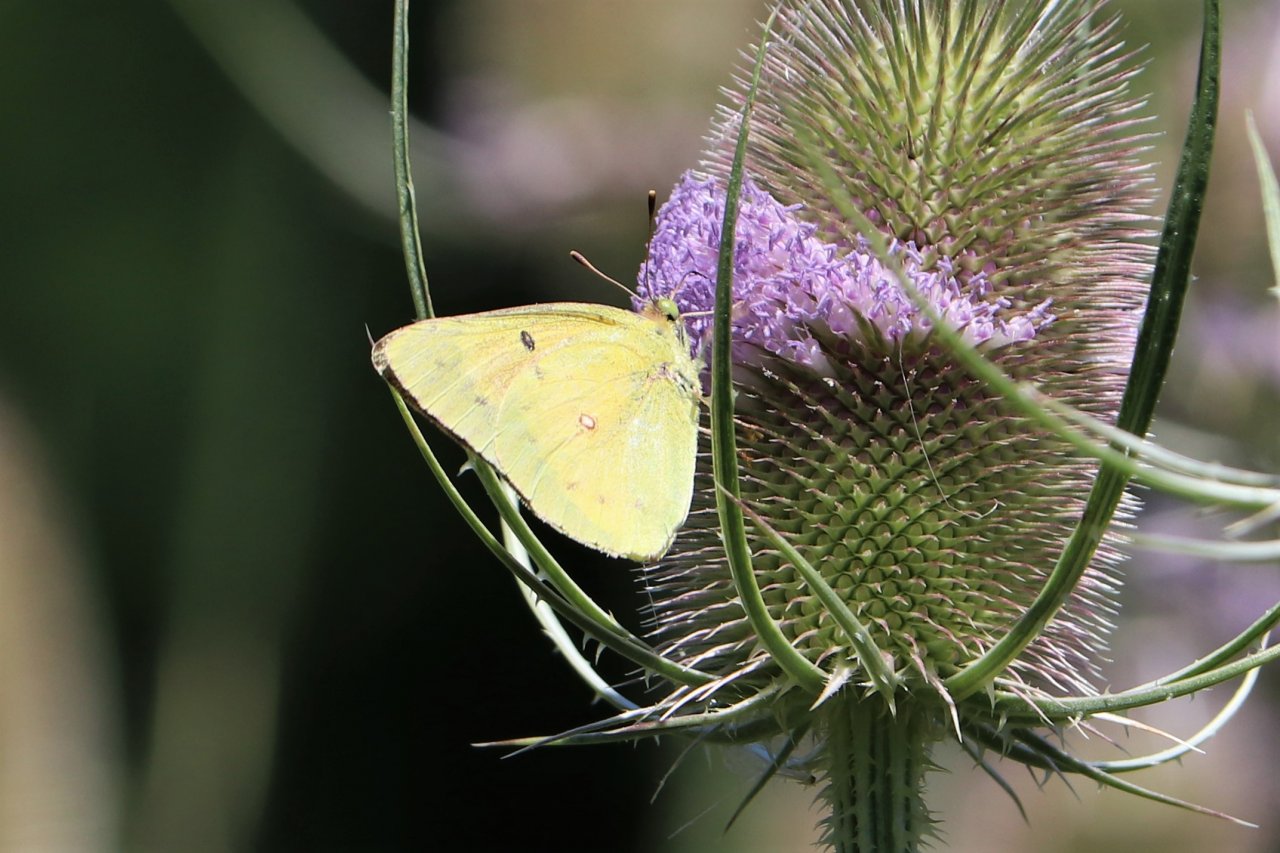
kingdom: Animalia
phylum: Arthropoda
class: Insecta
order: Lepidoptera
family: Pieridae
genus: Colias
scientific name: Colias philodice
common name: Clouded Sulphur
